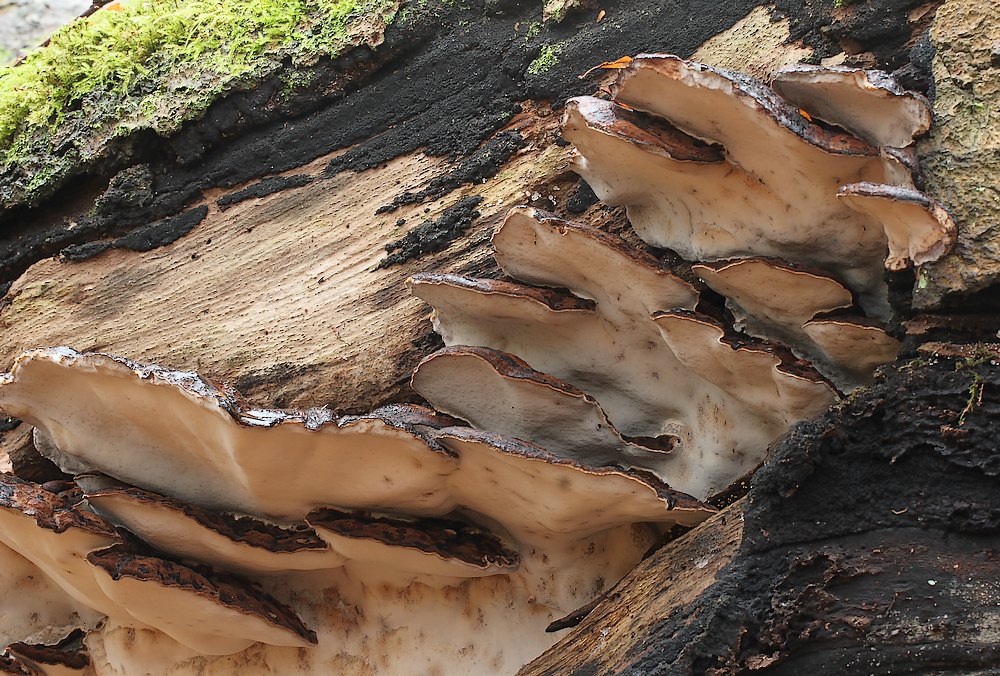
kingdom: Fungi
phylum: Basidiomycota
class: Agaricomycetes
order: Polyporales
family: Ischnodermataceae
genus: Ischnoderma
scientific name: Ischnoderma resinosum
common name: løv-tjæreporesvamp
